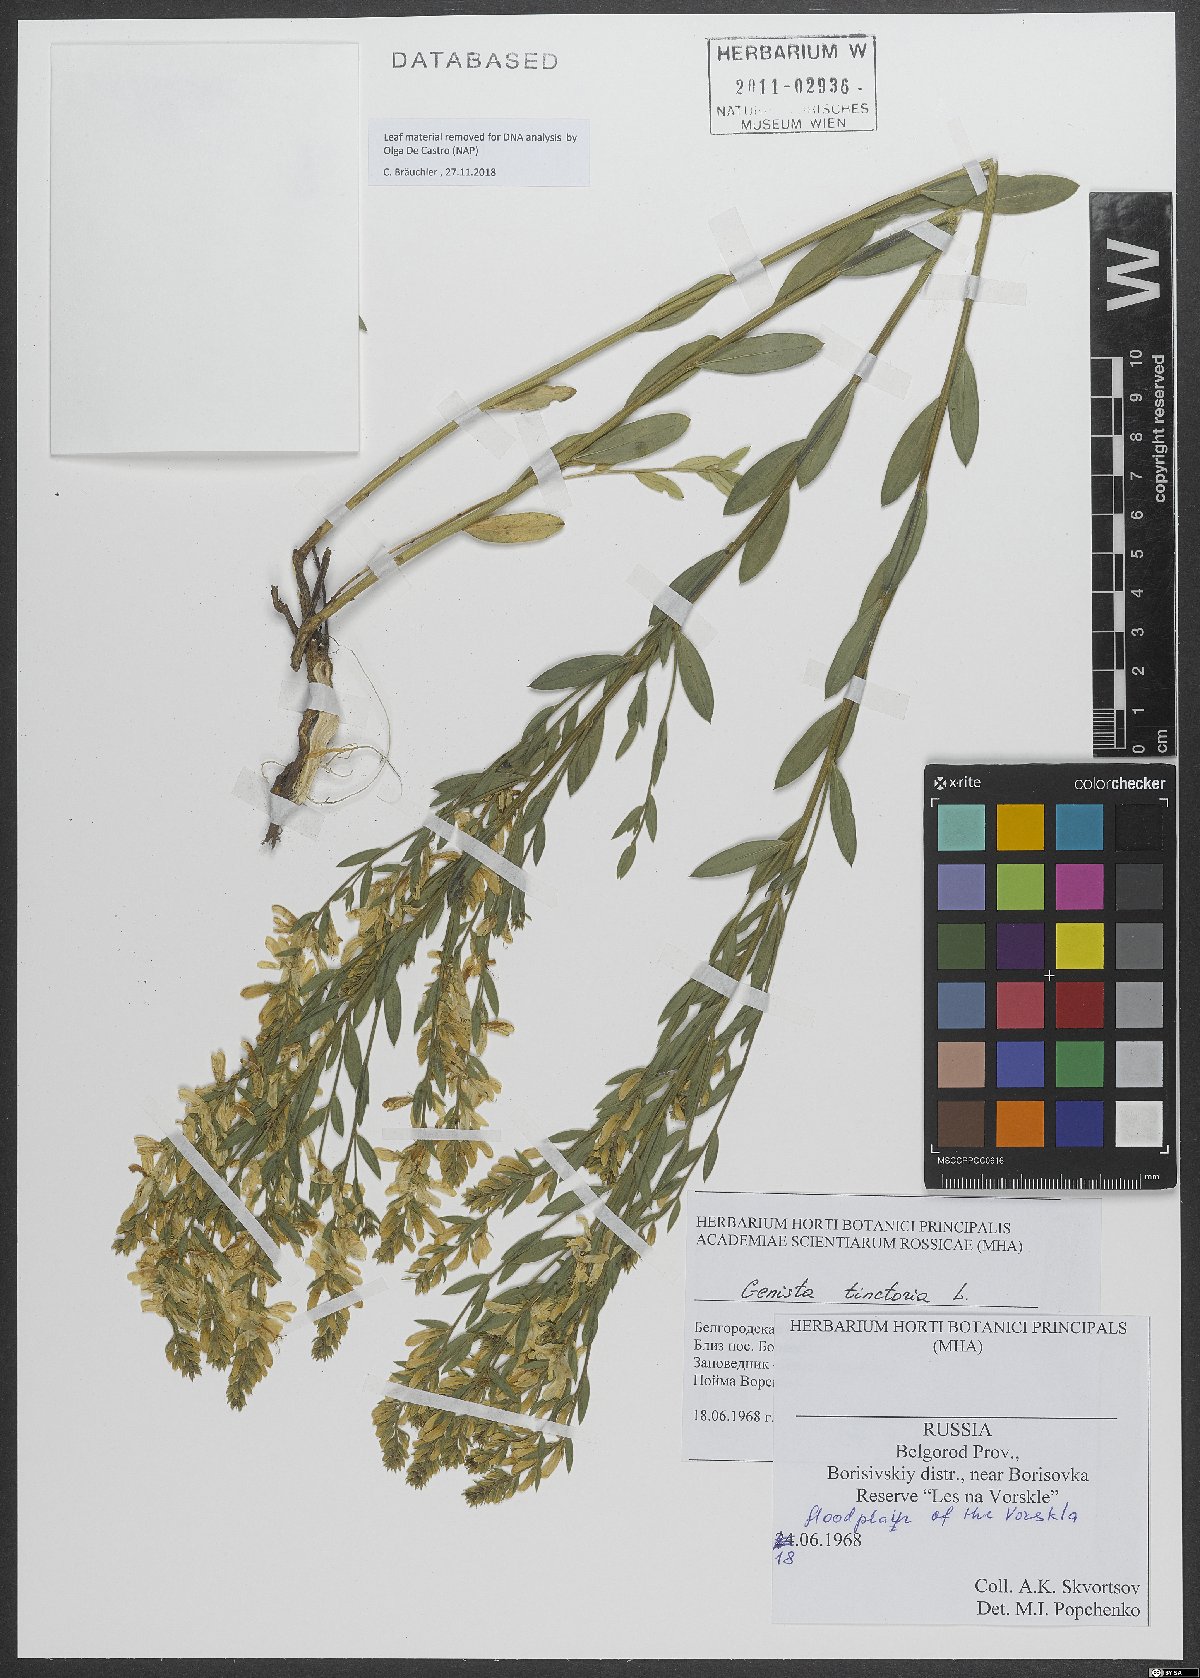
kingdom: Plantae
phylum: Tracheophyta
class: Magnoliopsida
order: Fabales
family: Fabaceae
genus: Genista
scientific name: Genista tinctoria
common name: Dyer's greenweed
